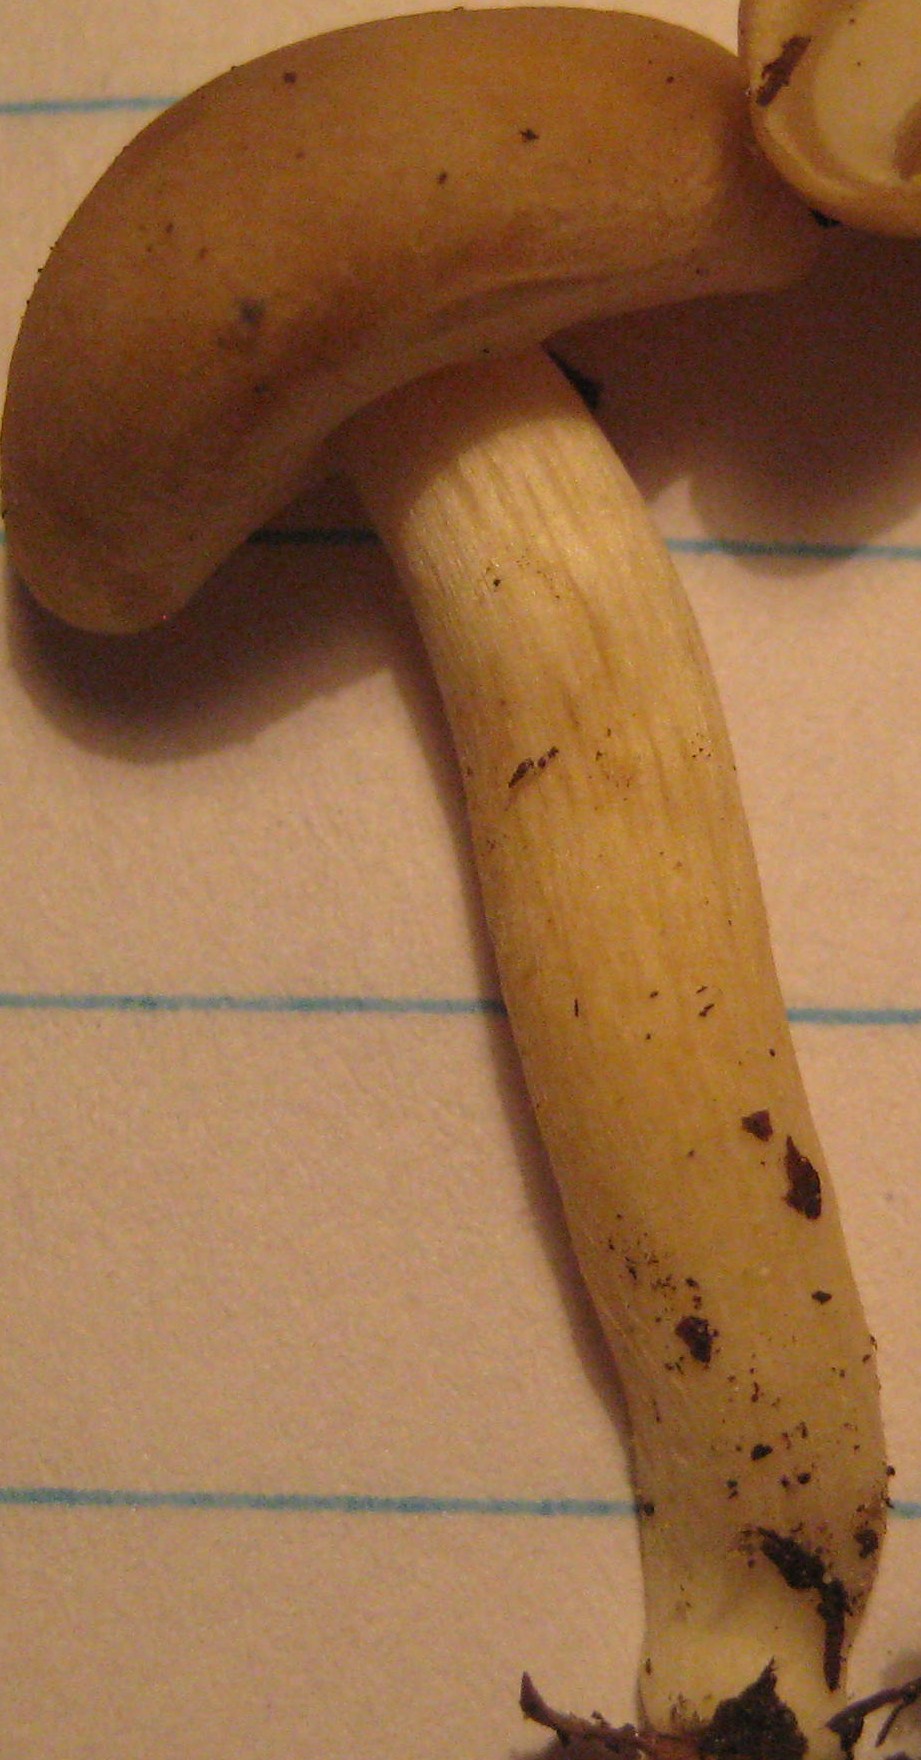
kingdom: Fungi
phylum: Basidiomycota
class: Agaricomycetes
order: Agaricales
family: Strophariaceae
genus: Agrocybe
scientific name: Agrocybe praecox
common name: tidlig agerhat
